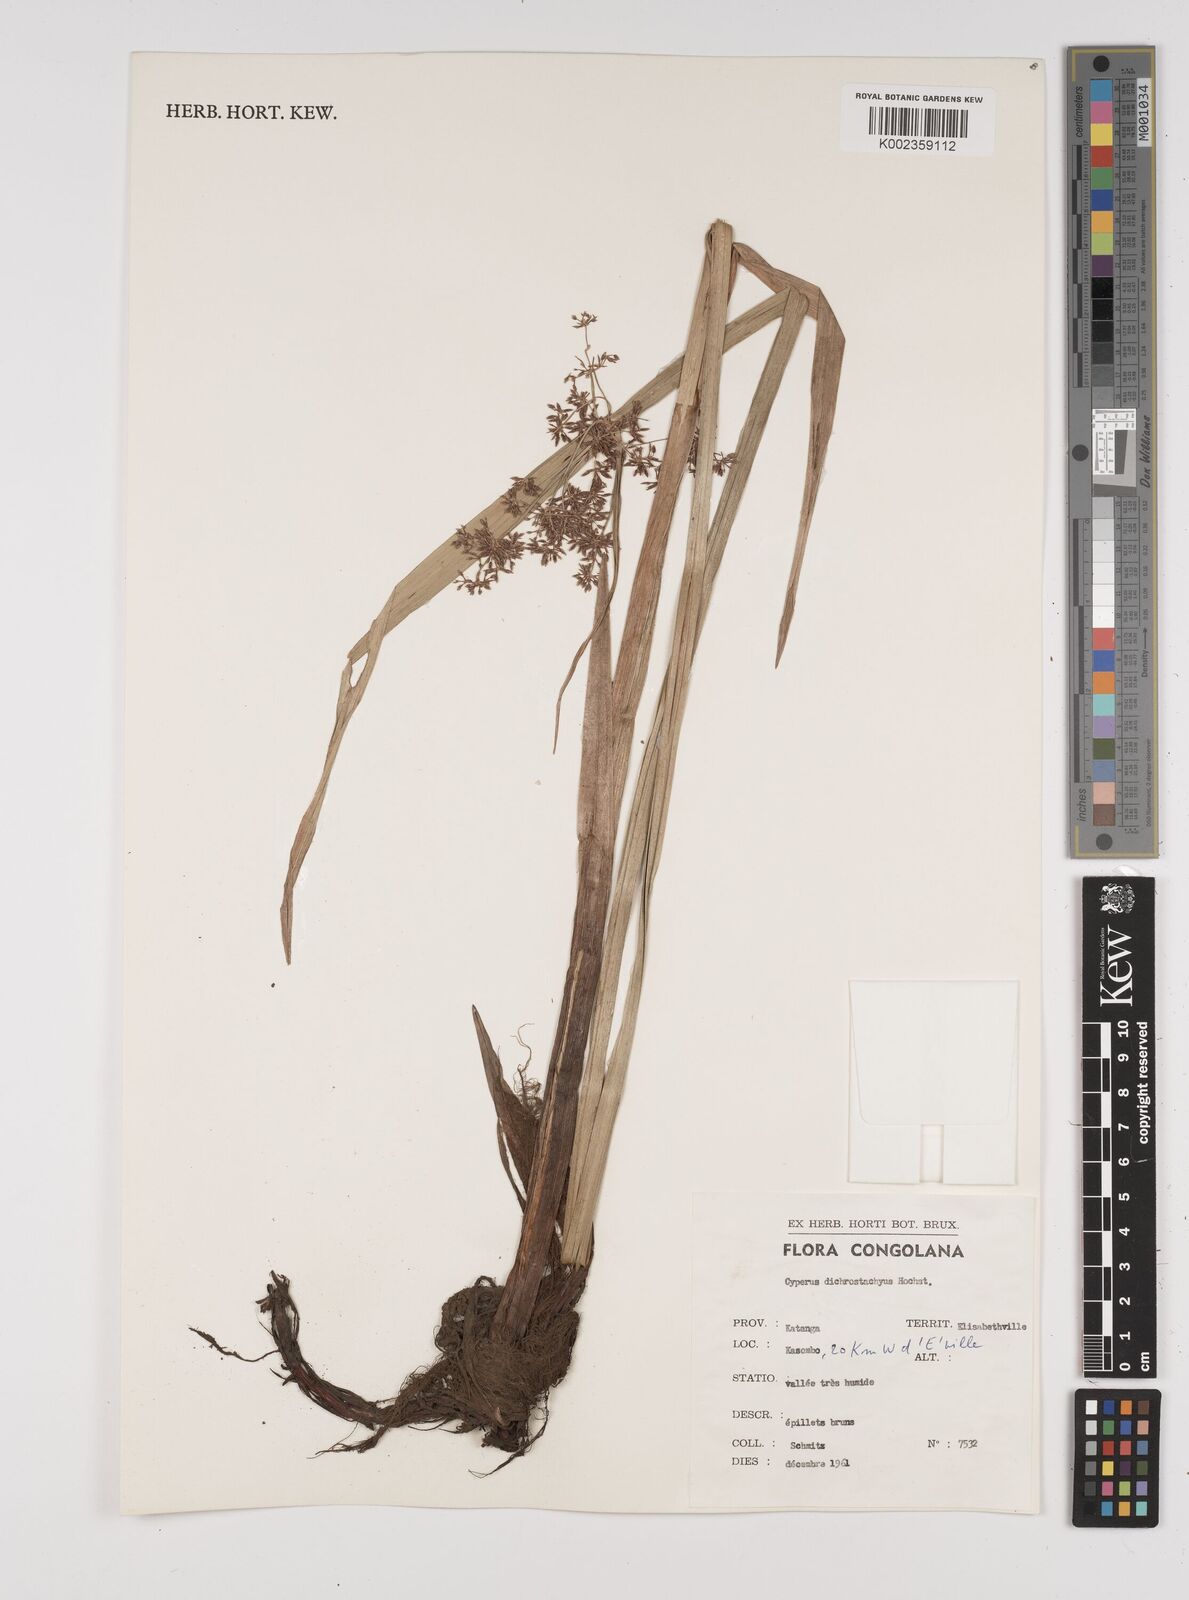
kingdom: Plantae
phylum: Tracheophyta
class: Liliopsida
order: Poales
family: Cyperaceae
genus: Cyperus
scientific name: Cyperus dichrostachyus
